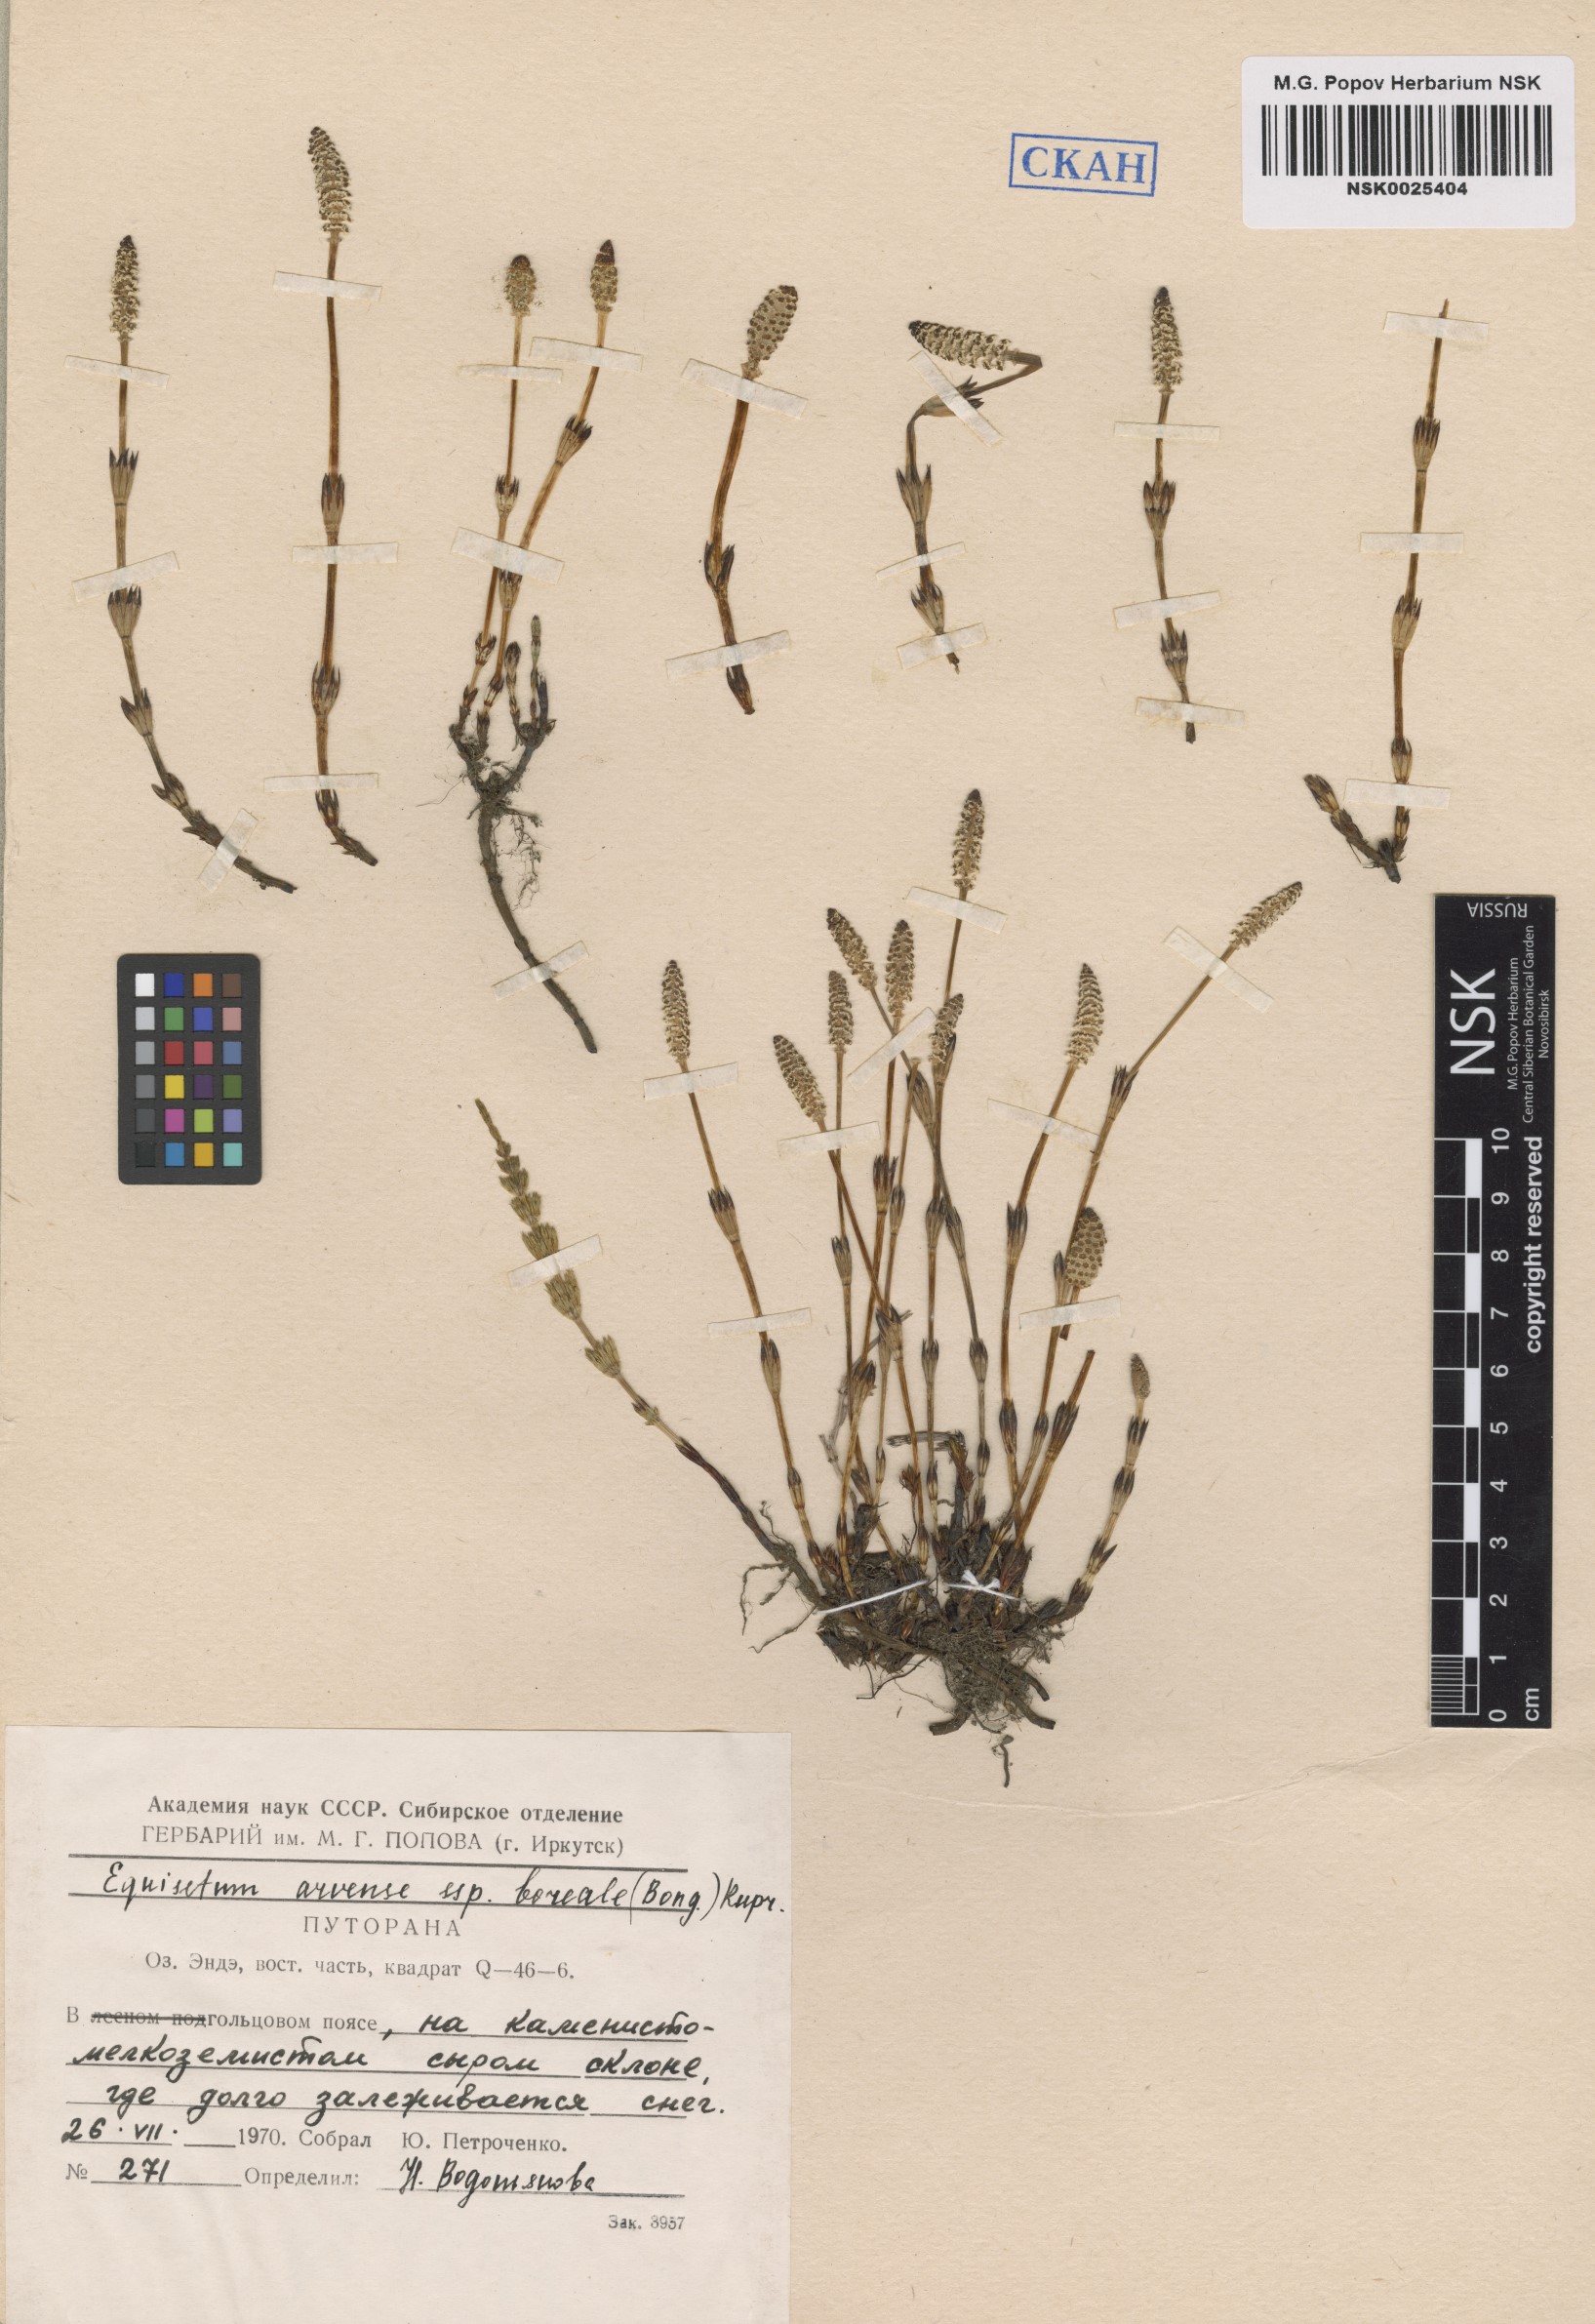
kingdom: Plantae
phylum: Tracheophyta
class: Polypodiopsida
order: Equisetales
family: Equisetaceae
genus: Equisetum
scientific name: Equisetum arvense
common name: Field horsetail
